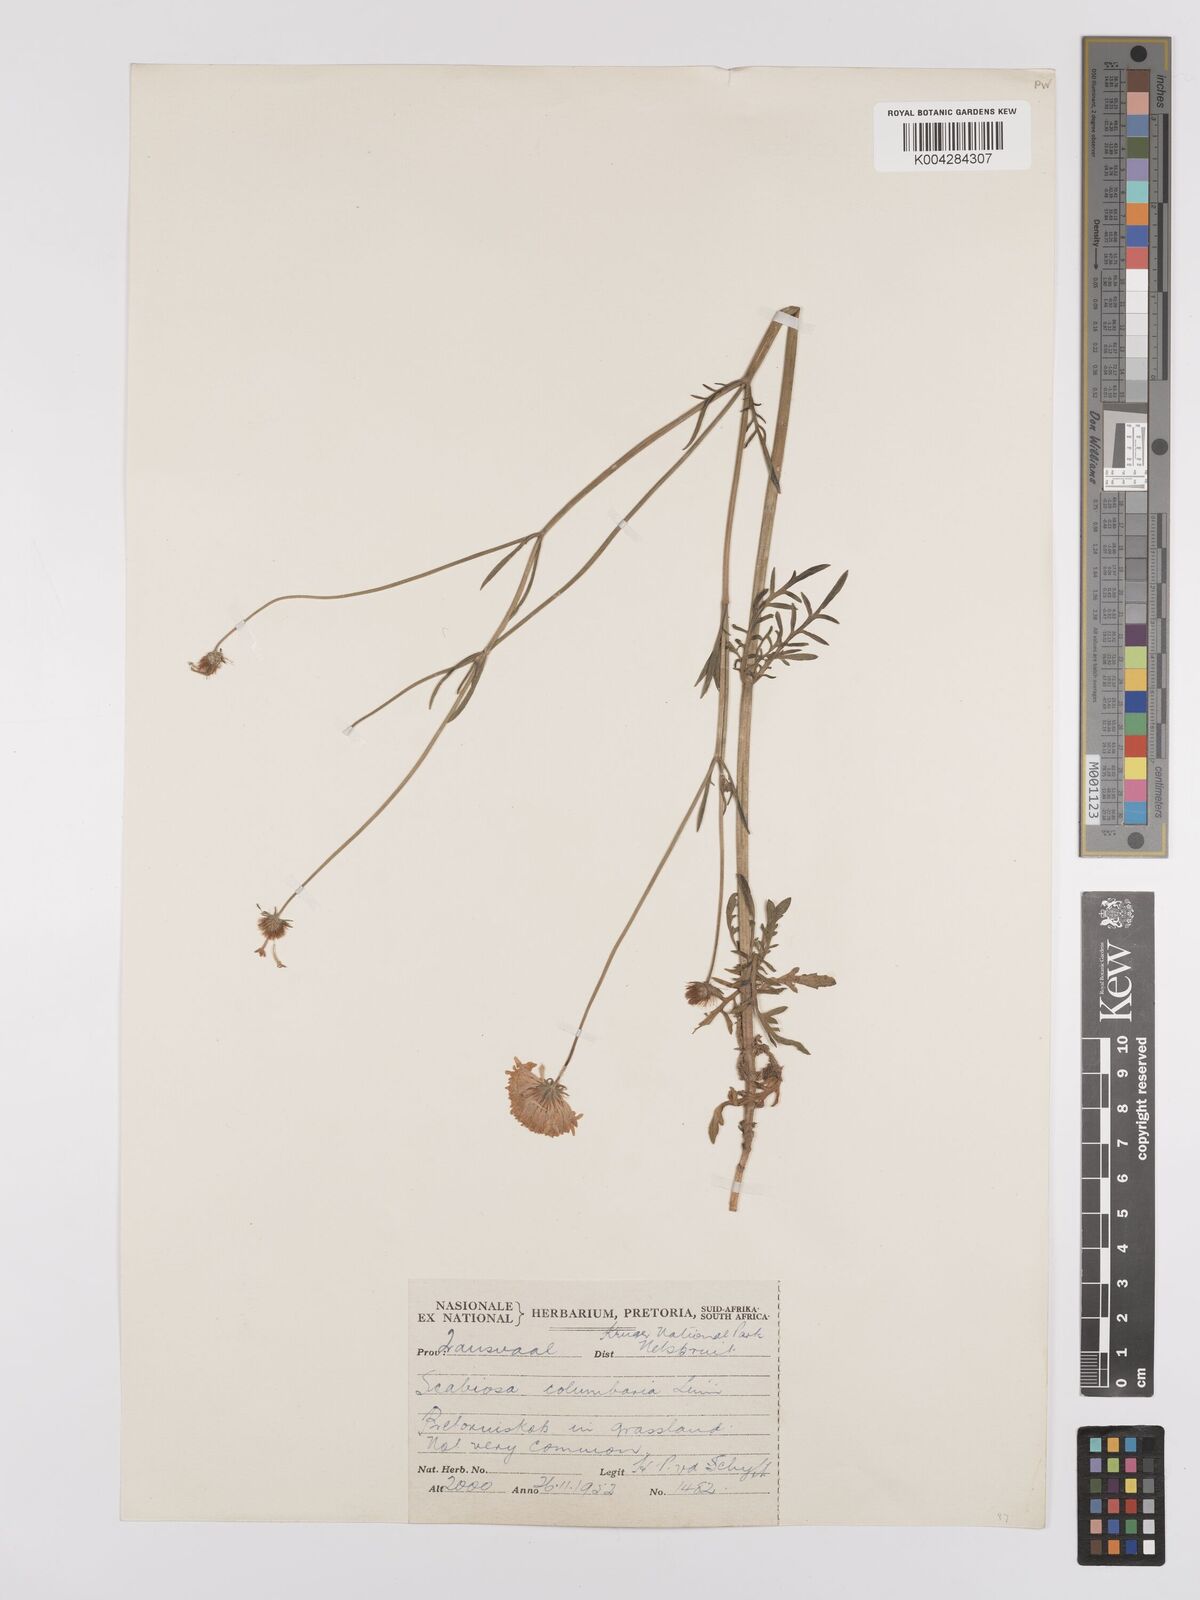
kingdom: Plantae
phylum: Tracheophyta
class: Magnoliopsida
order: Dipsacales
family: Caprifoliaceae
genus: Scabiosa
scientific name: Scabiosa austroafricana
